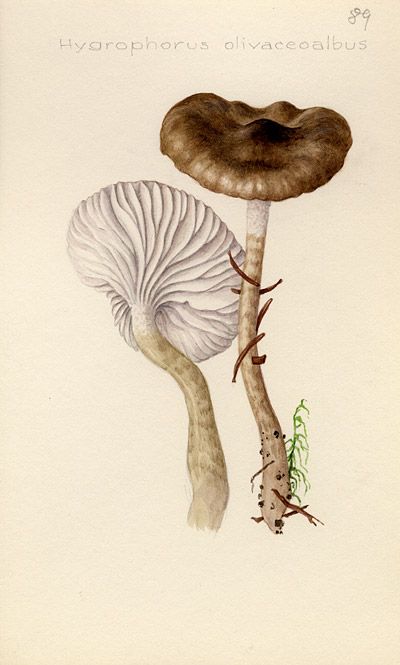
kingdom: Fungi
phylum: Basidiomycota
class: Agaricomycetes
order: Agaricales
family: Hygrophoraceae
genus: Hygrophorus
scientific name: Hygrophorus olivaceoalbus
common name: Olive wax cap
